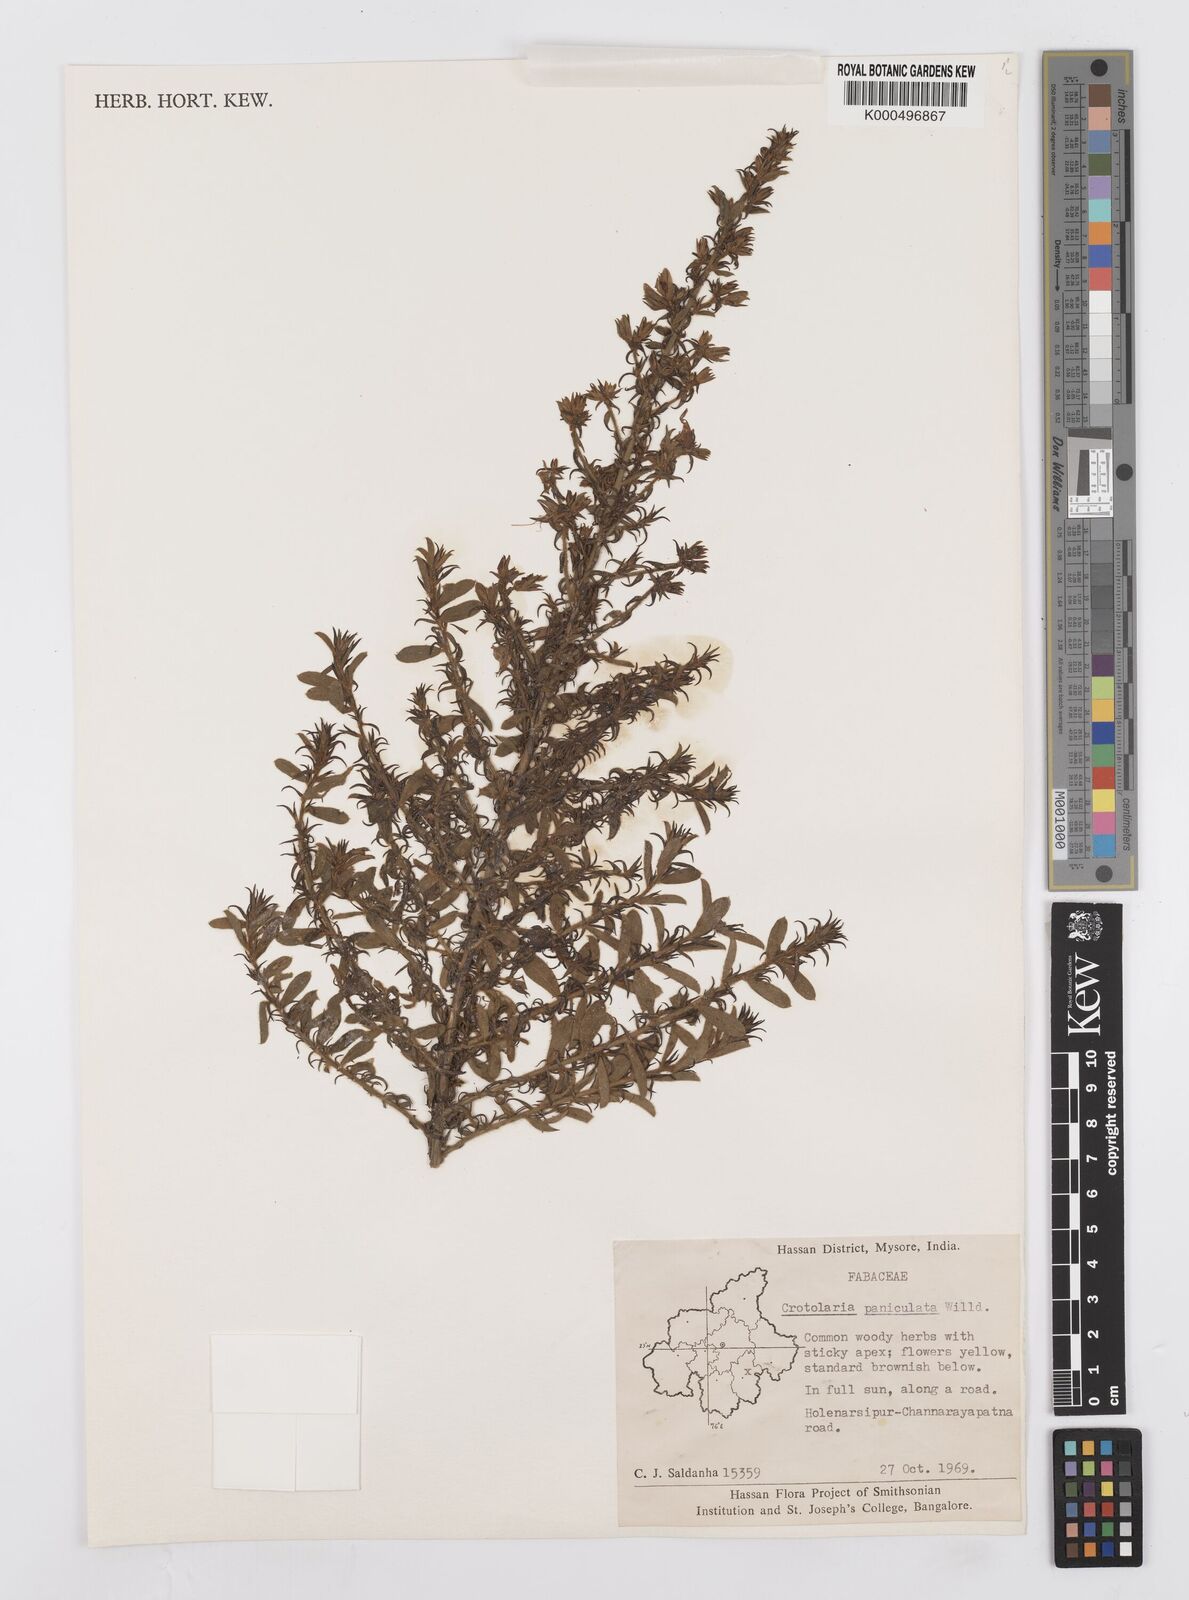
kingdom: Plantae
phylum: Tracheophyta
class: Magnoliopsida
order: Fabales
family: Fabaceae
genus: Crotalaria
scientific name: Crotalaria paniculata
